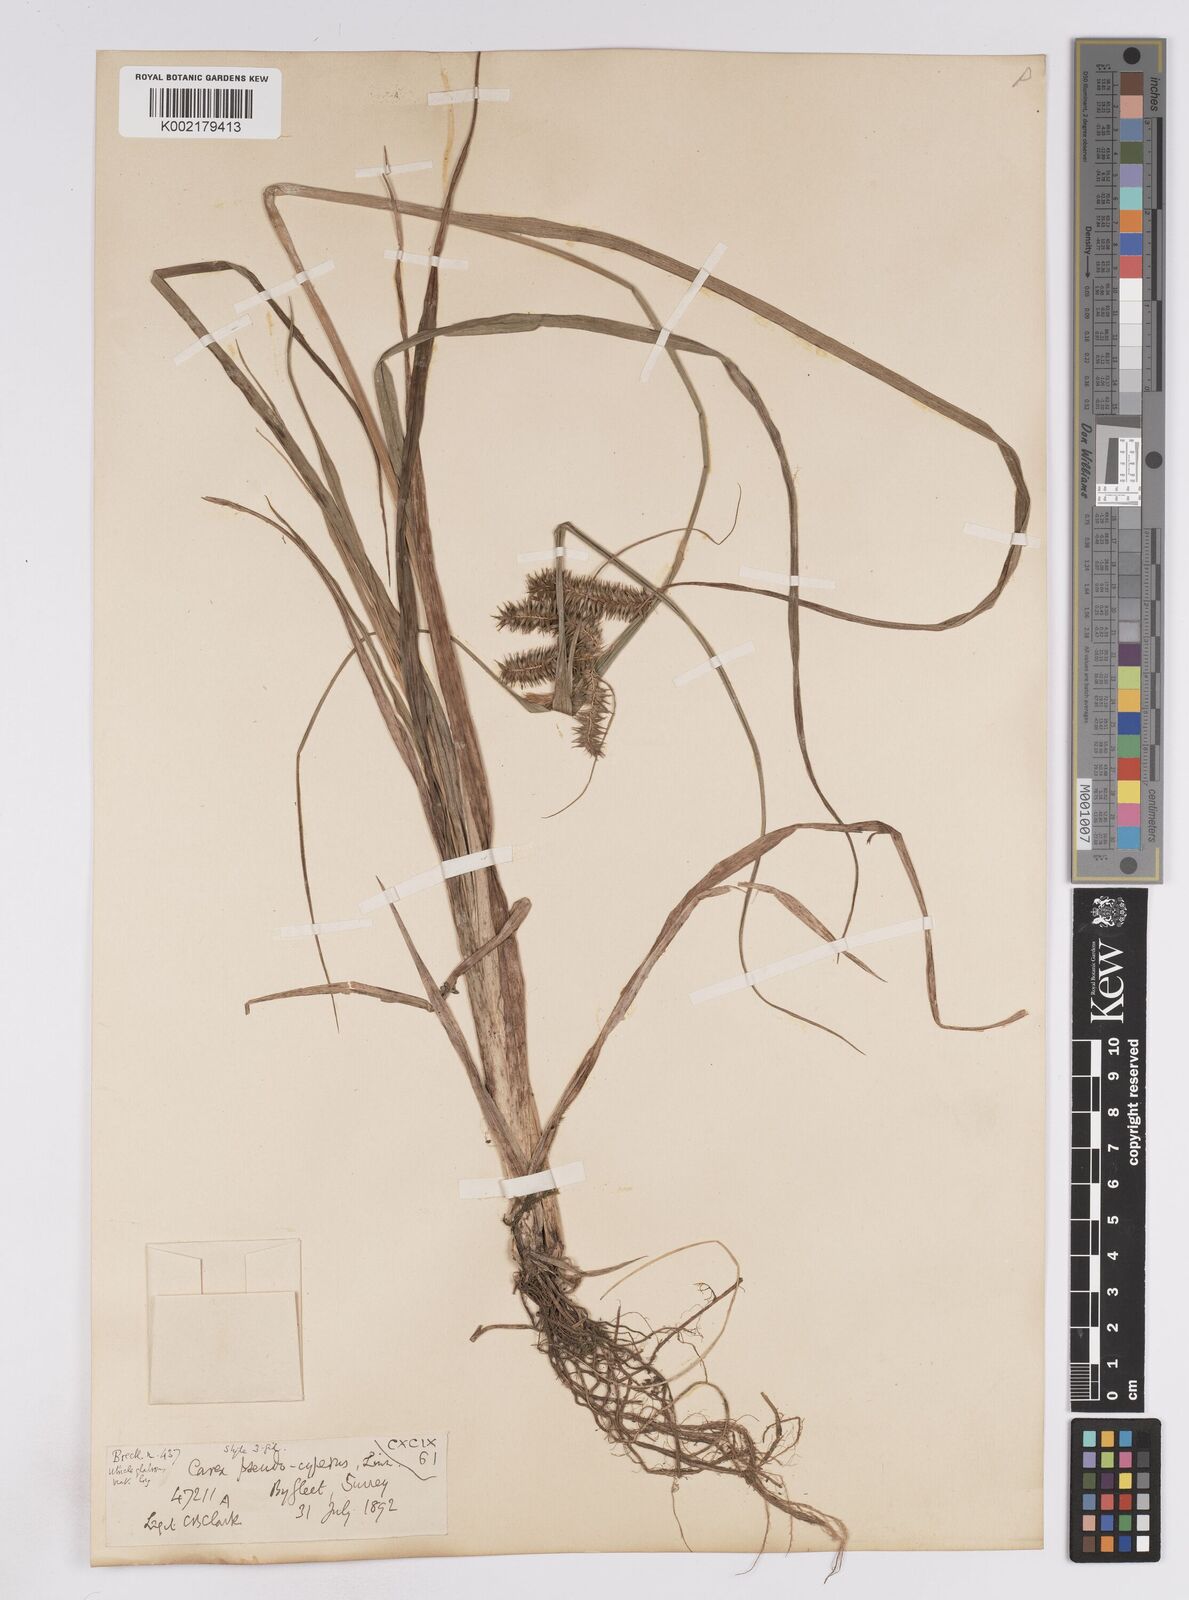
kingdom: Plantae
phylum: Tracheophyta
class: Liliopsida
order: Poales
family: Cyperaceae
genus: Carex
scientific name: Carex pseudocyperus
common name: Cyperus sedge
